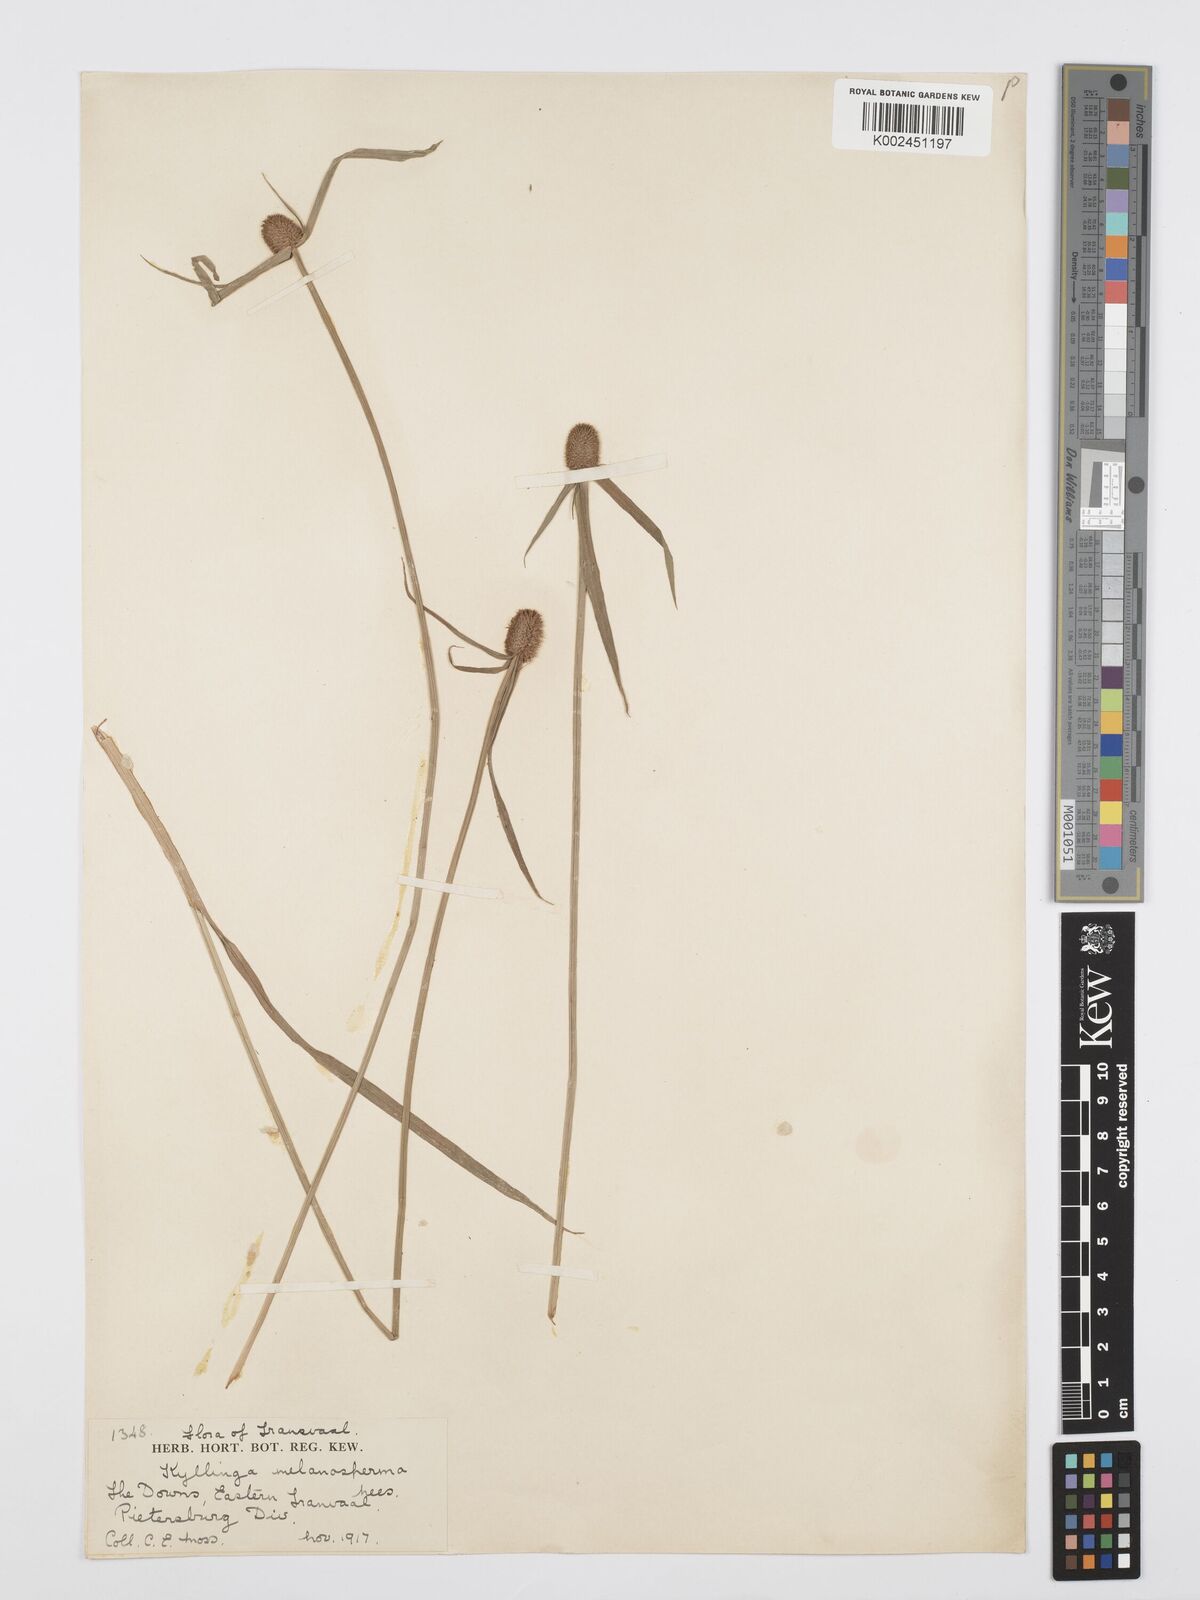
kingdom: Plantae
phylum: Tracheophyta
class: Liliopsida
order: Poales
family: Cyperaceae
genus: Cyperus
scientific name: Cyperus melanospermus
